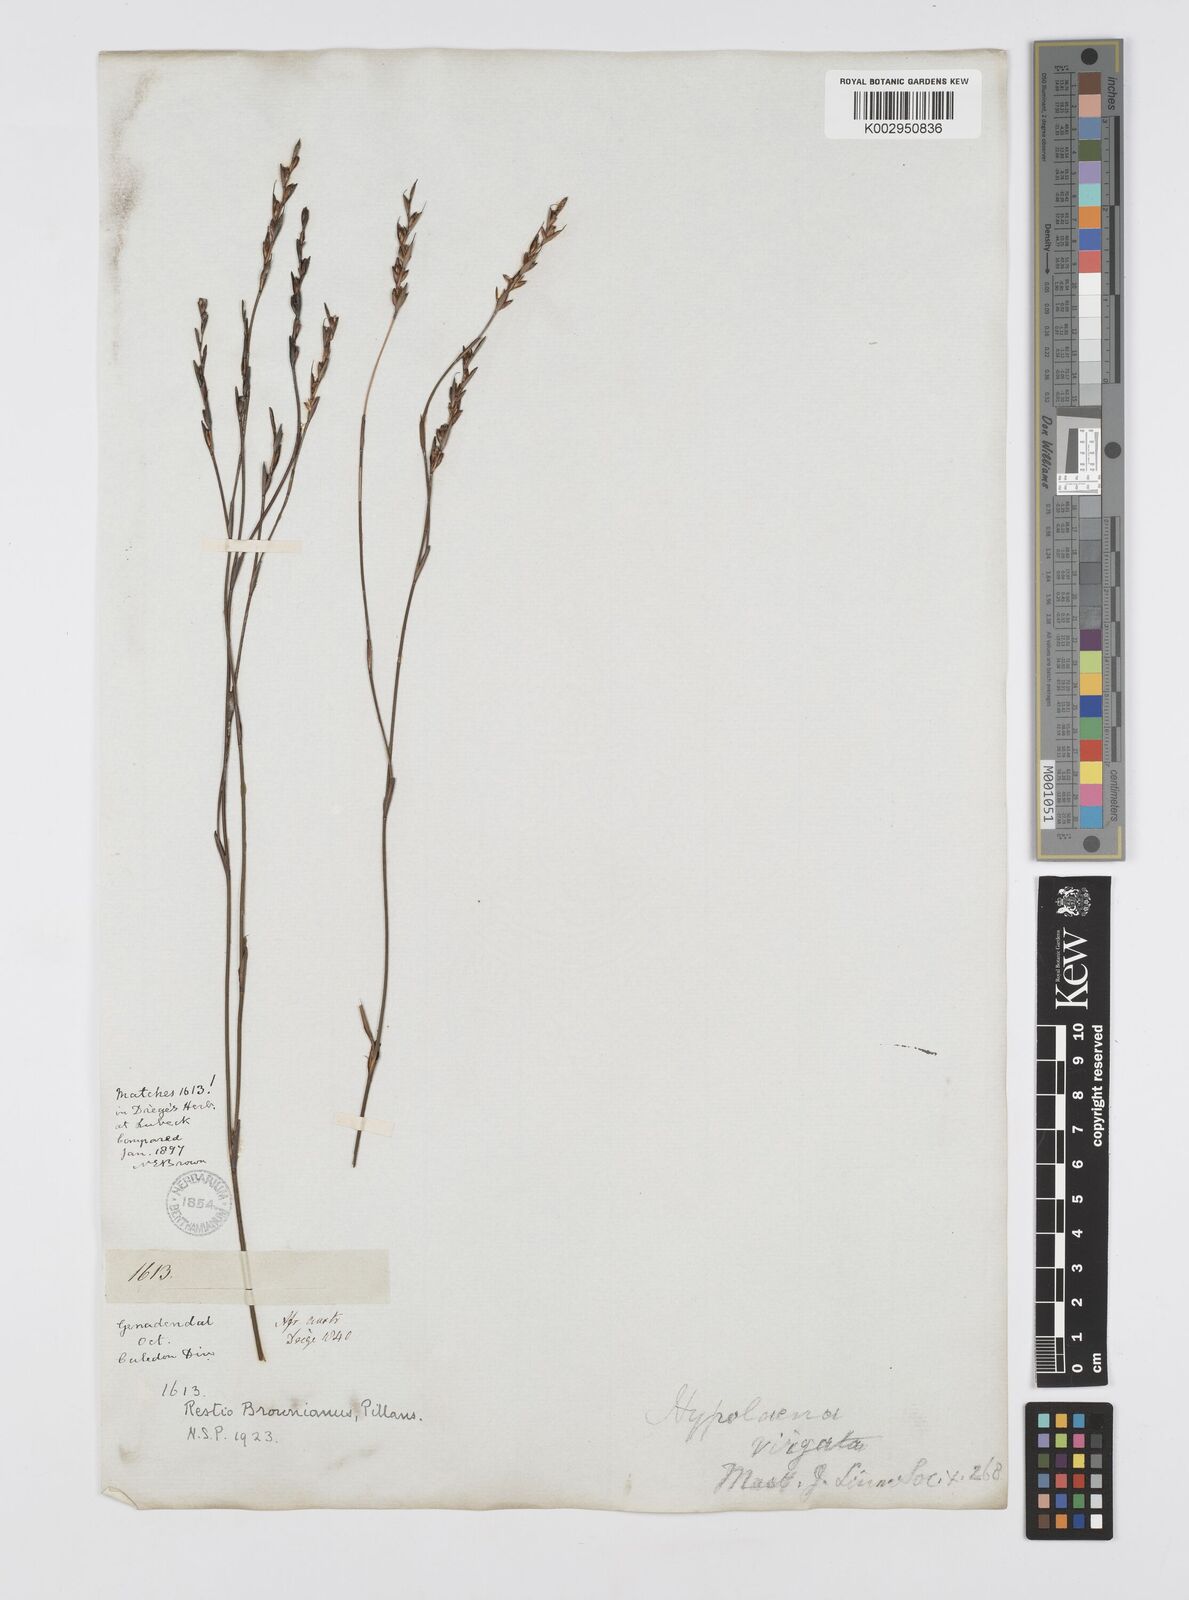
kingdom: Plantae
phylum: Tracheophyta
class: Liliopsida
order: Poales
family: Restionaceae
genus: Restio
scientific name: Restio debilis
